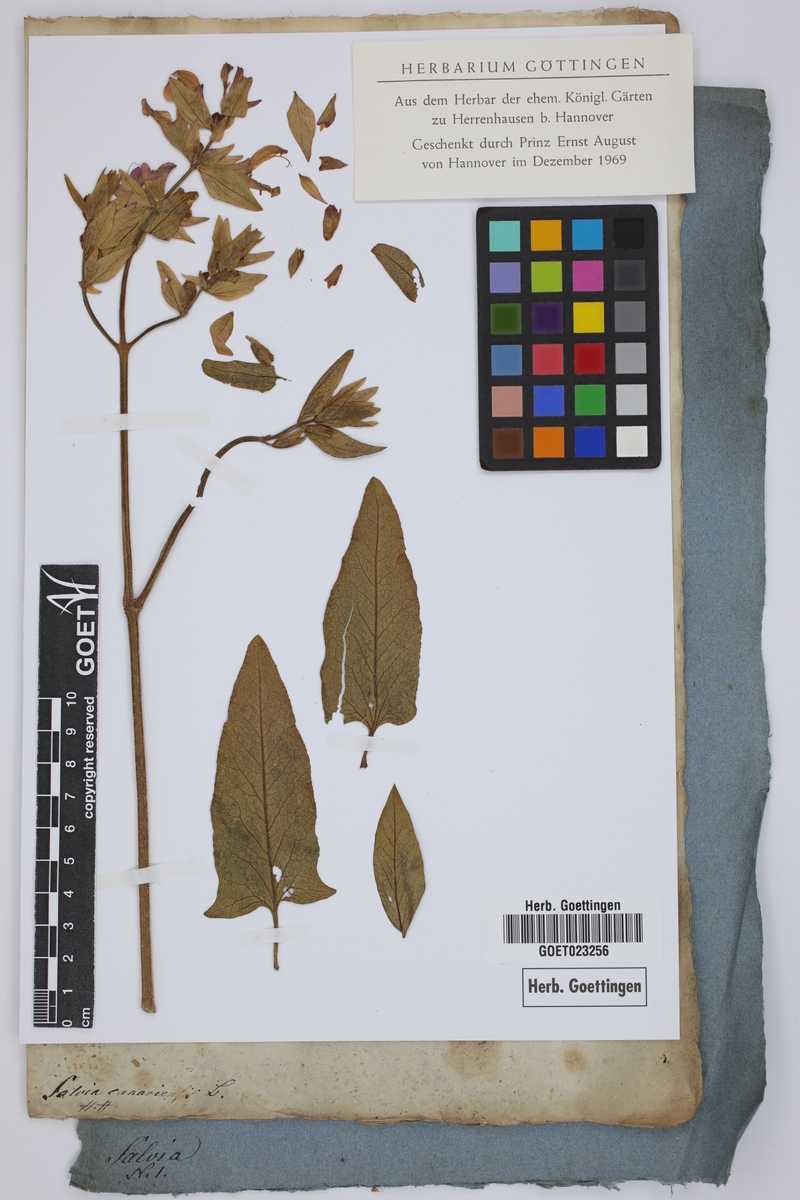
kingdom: Plantae
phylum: Tracheophyta
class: Magnoliopsida
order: Lamiales
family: Lamiaceae
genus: Salvia
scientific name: Salvia canariensis
